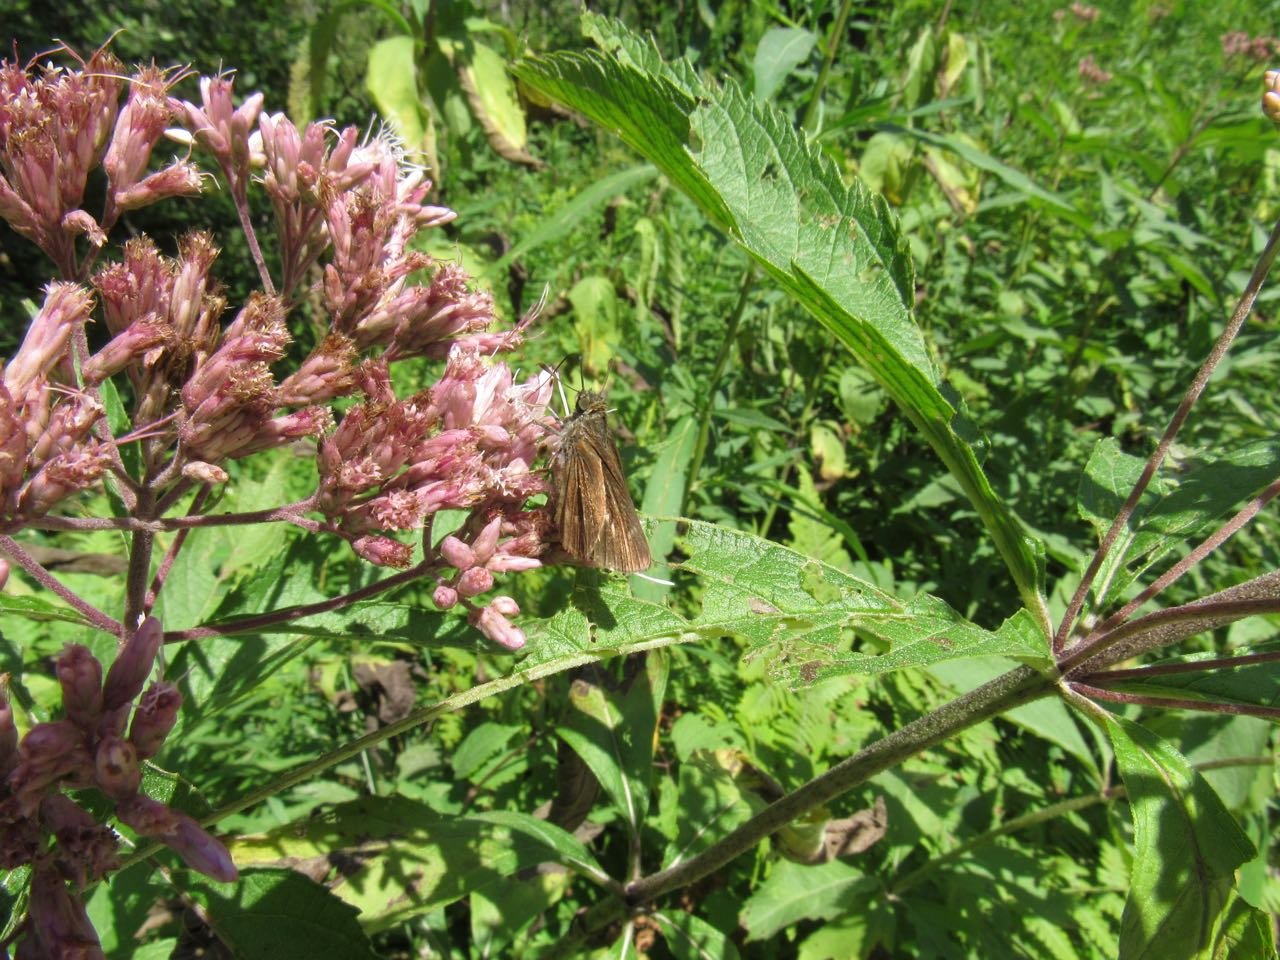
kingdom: Animalia
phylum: Arthropoda
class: Insecta
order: Lepidoptera
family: Hesperiidae
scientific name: Hesperiidae
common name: Skippers
